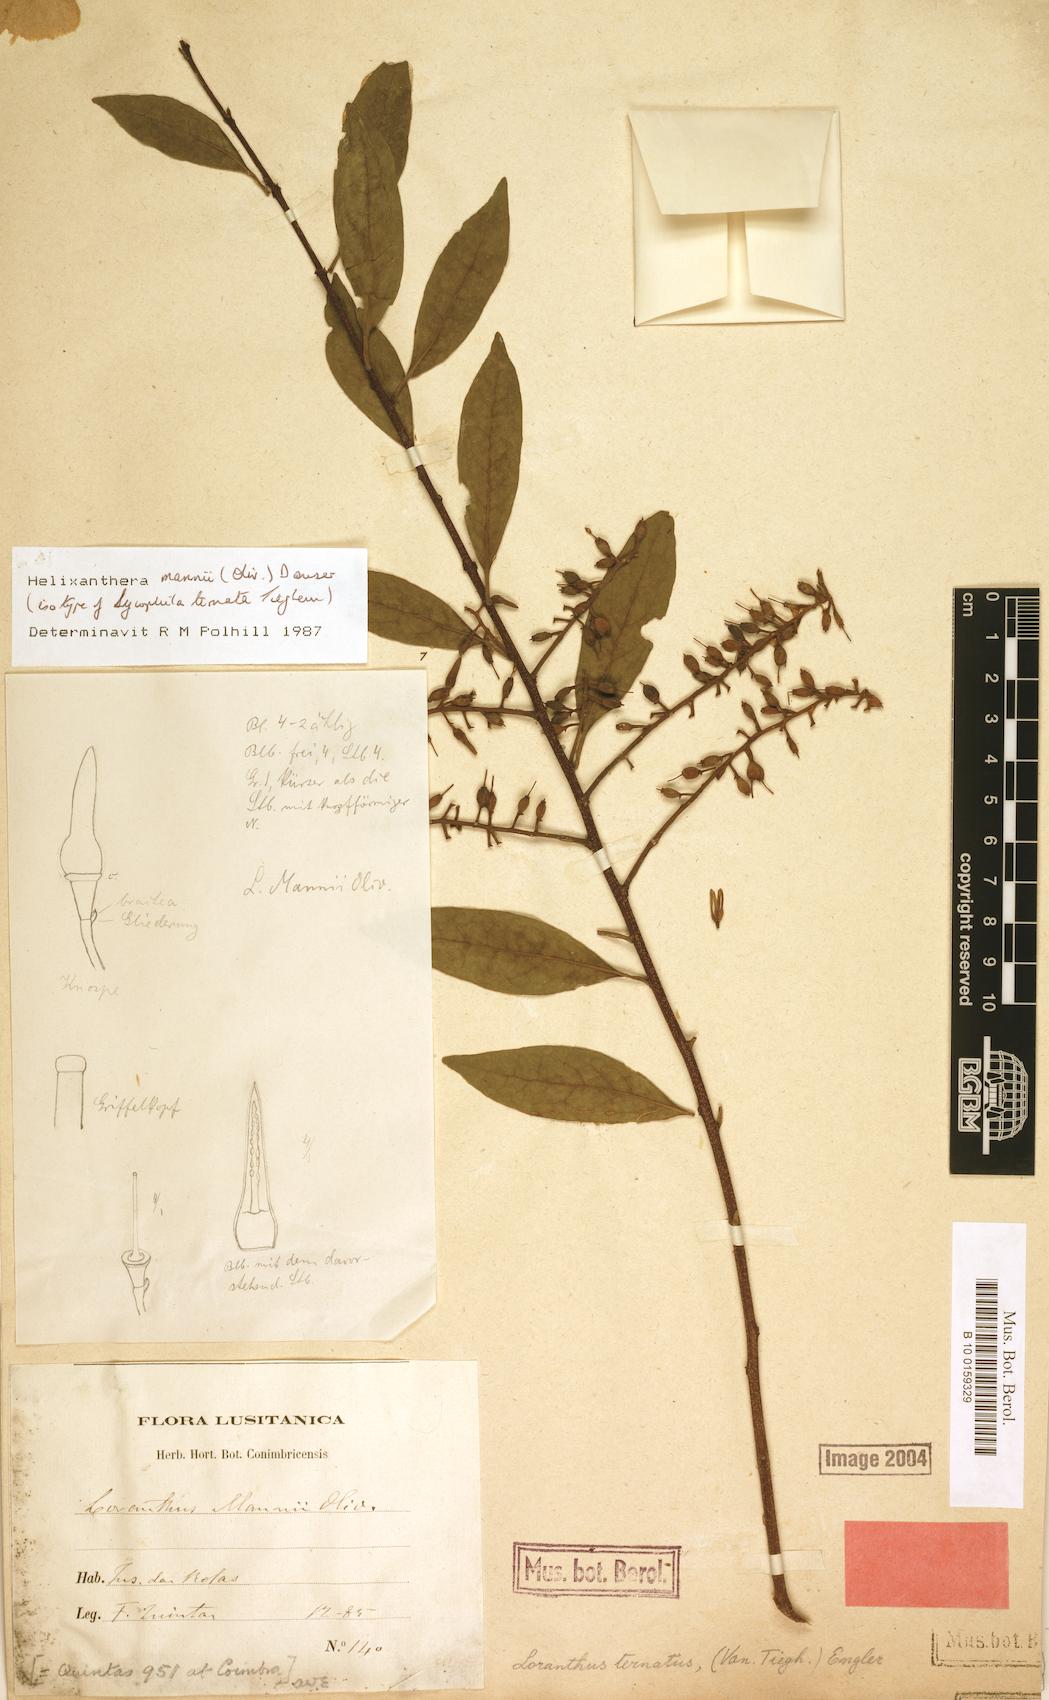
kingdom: Plantae
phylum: Tracheophyta
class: Magnoliopsida
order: Santalales
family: Loranthaceae
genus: Helixanthera
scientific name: Helixanthera mannii
